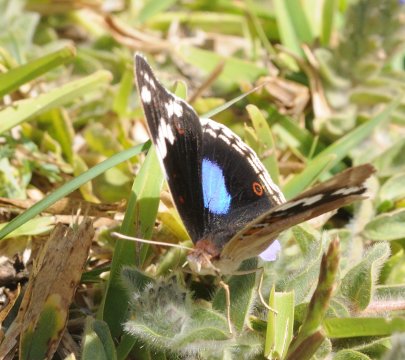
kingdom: Animalia
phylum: Arthropoda
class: Insecta
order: Lepidoptera
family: Nymphalidae
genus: Junonia
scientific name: Junonia oenone
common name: Dark blue pansy
